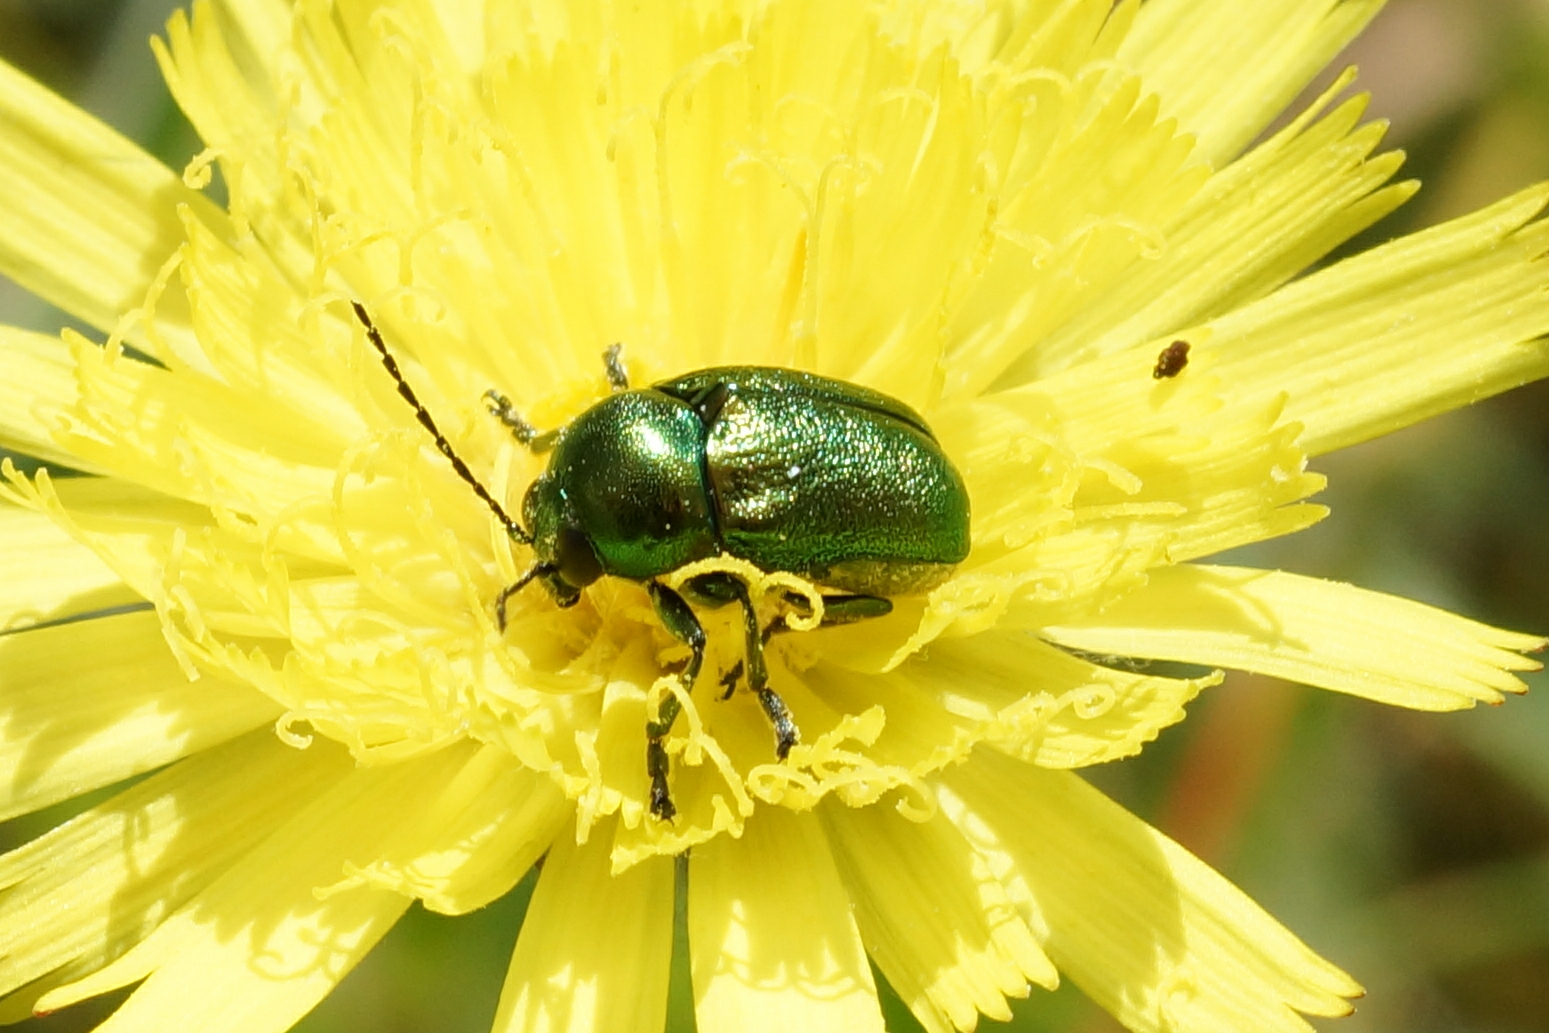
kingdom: Animalia
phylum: Arthropoda
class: Insecta
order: Coleoptera
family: Chrysomelidae
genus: Cryptocephalus
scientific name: Cryptocephalus aureolus
